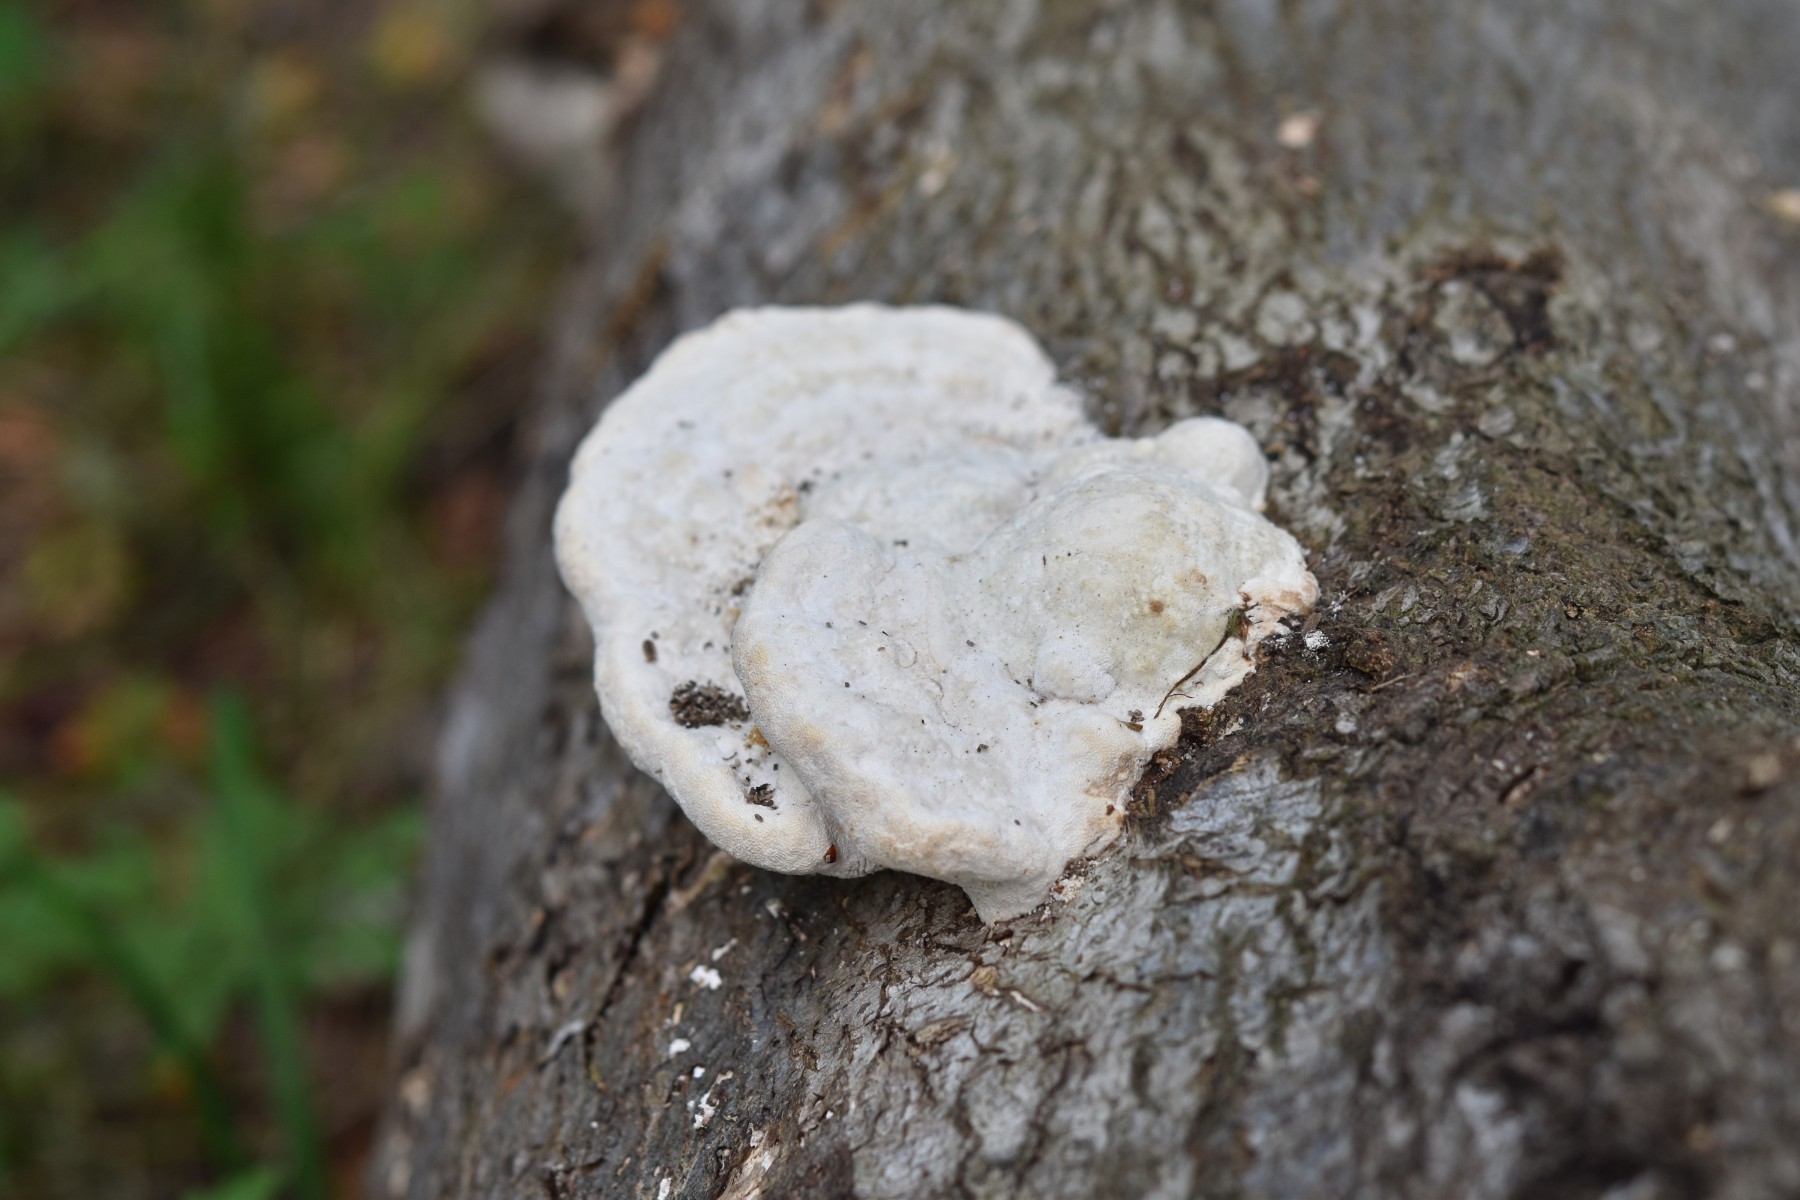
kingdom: Fungi
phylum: Basidiomycota
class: Agaricomycetes
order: Polyporales
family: Polyporaceae
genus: Trametes
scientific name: Trametes gibbosa
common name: puklet læderporesvamp
